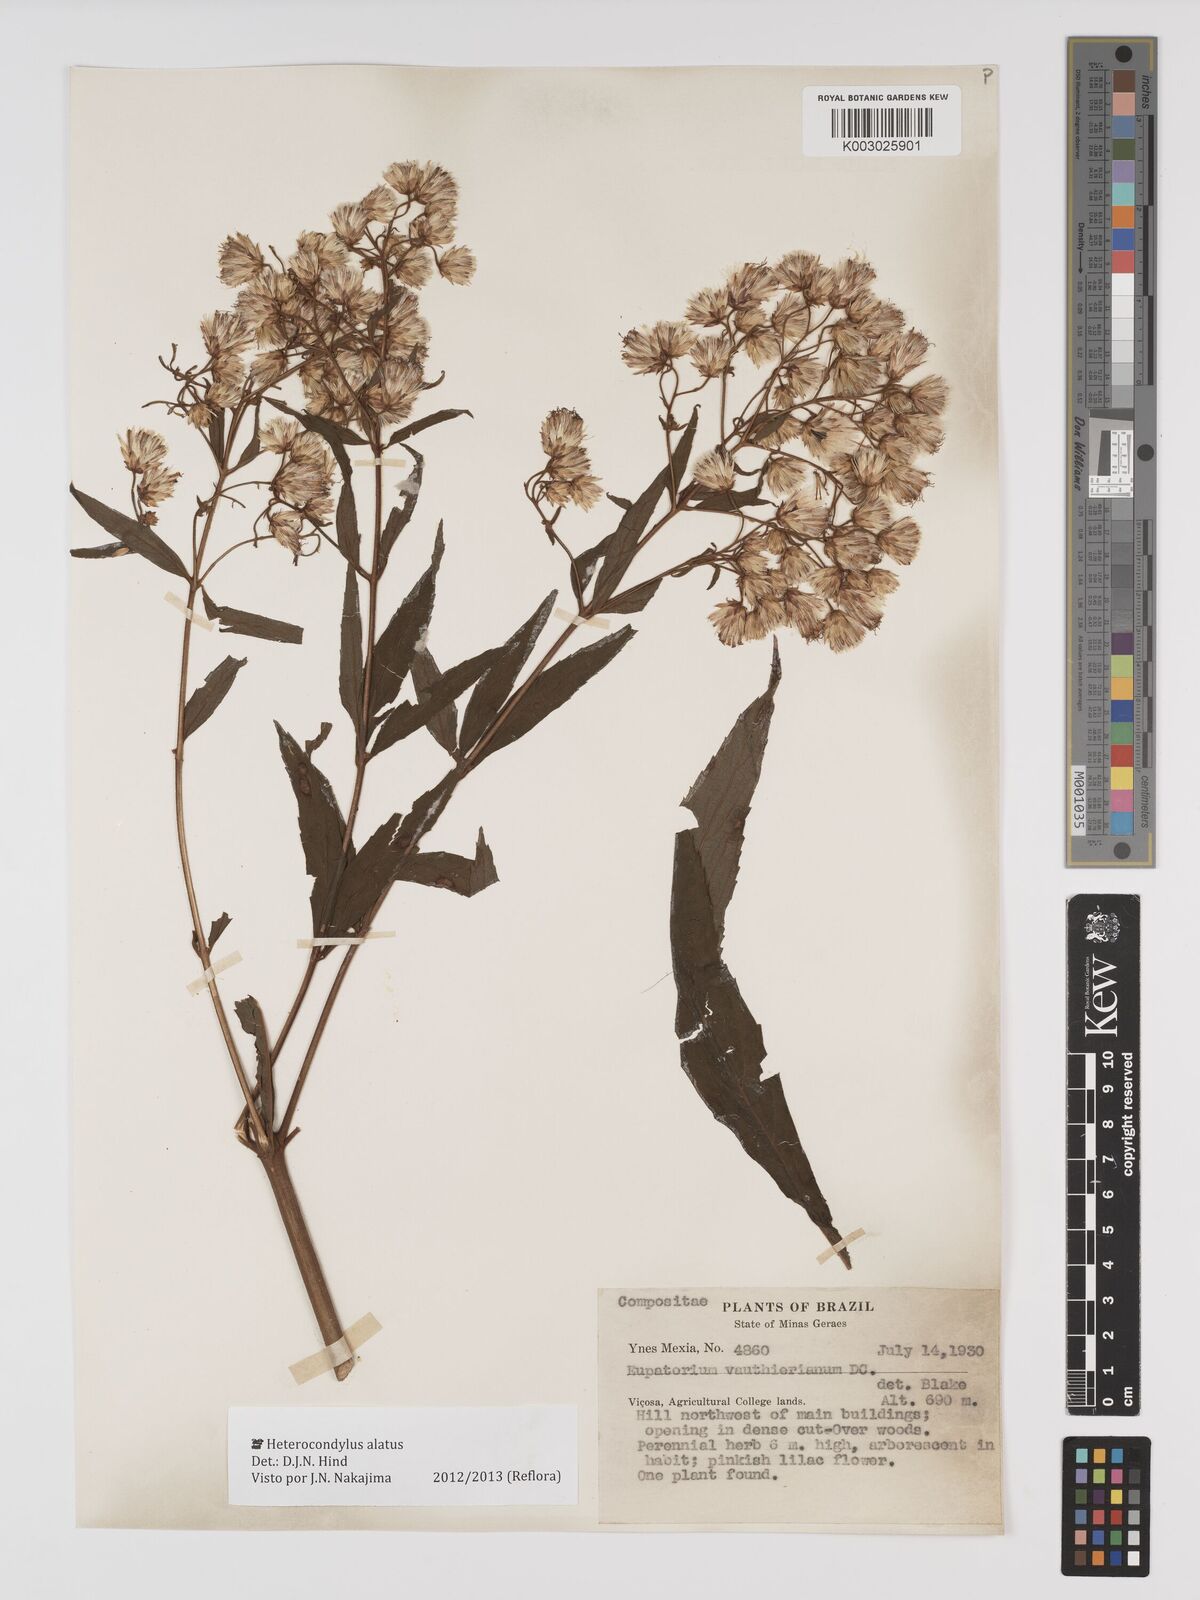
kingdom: Plantae
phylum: Tracheophyta
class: Magnoliopsida
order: Asterales
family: Asteraceae
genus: Heterocondylus
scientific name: Heterocondylus alatus
